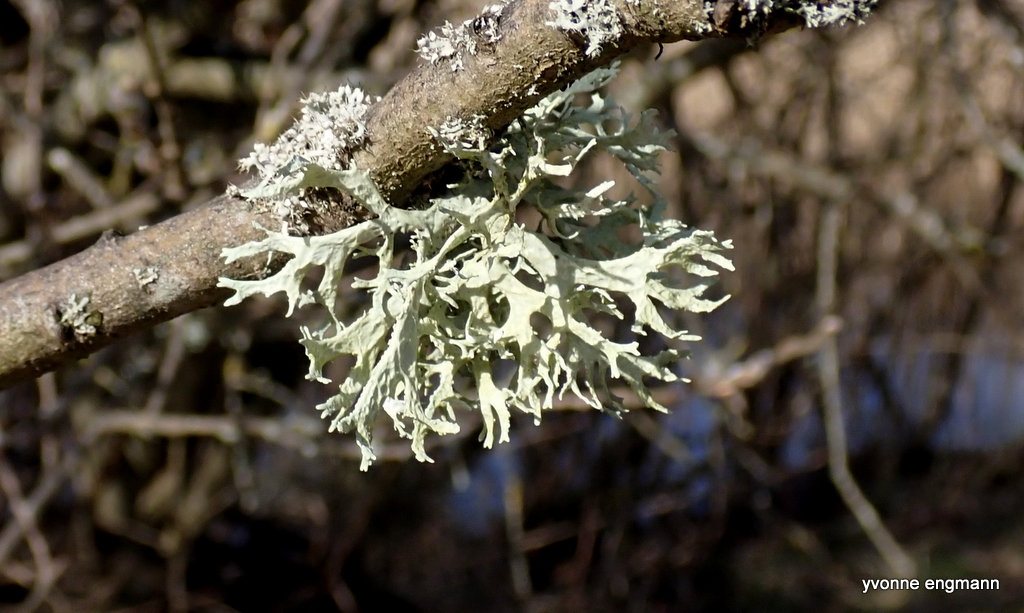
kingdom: Fungi
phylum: Ascomycota
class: Lecanoromycetes
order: Lecanorales
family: Parmeliaceae
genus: Evernia
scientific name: Evernia prunastri
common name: almindelig slåenlav
